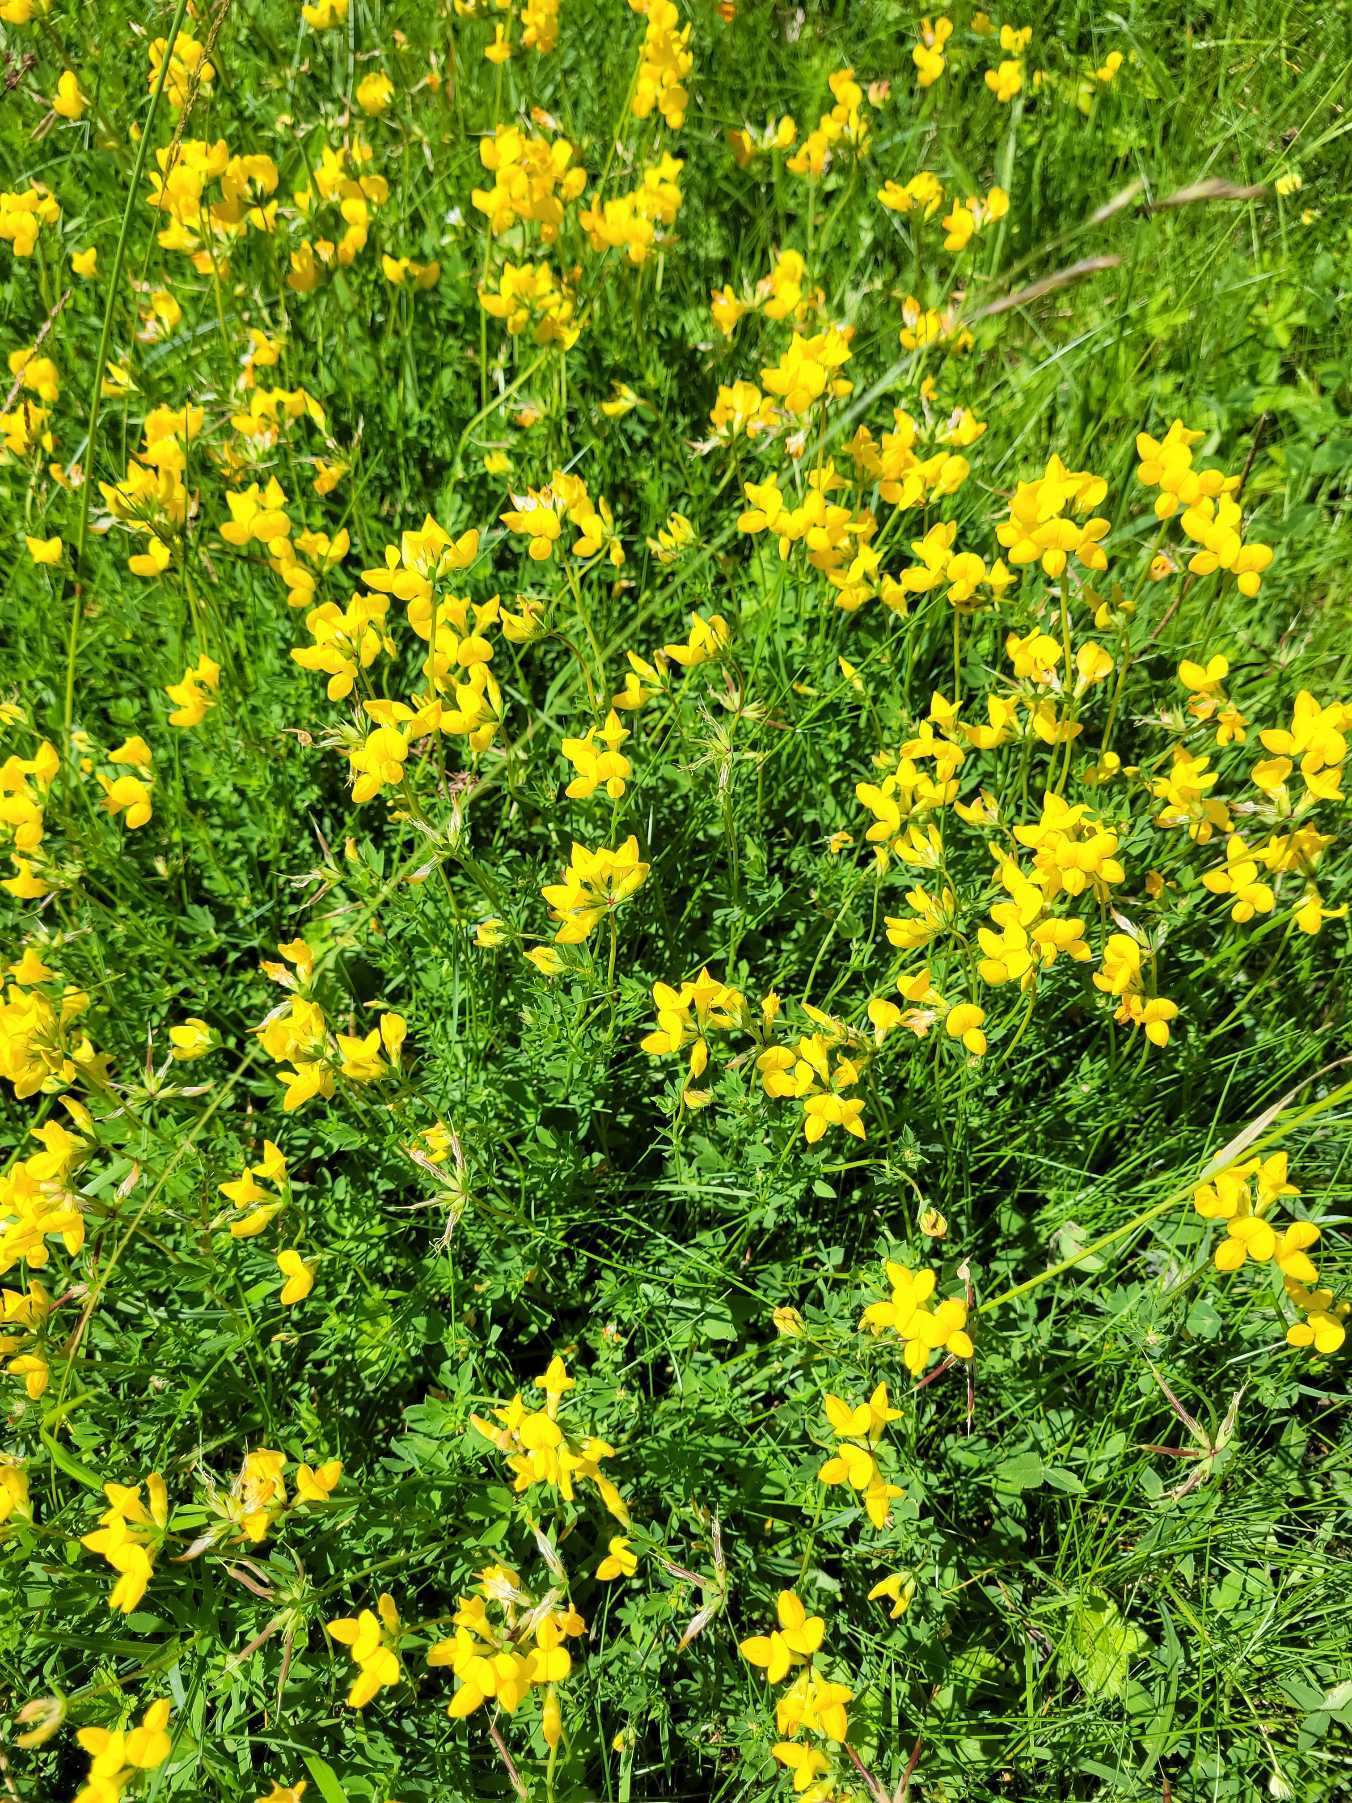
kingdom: Plantae
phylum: Tracheophyta
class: Magnoliopsida
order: Fabales
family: Fabaceae
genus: Lotus
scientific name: Lotus corniculatus
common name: Almindelig kællingetand
